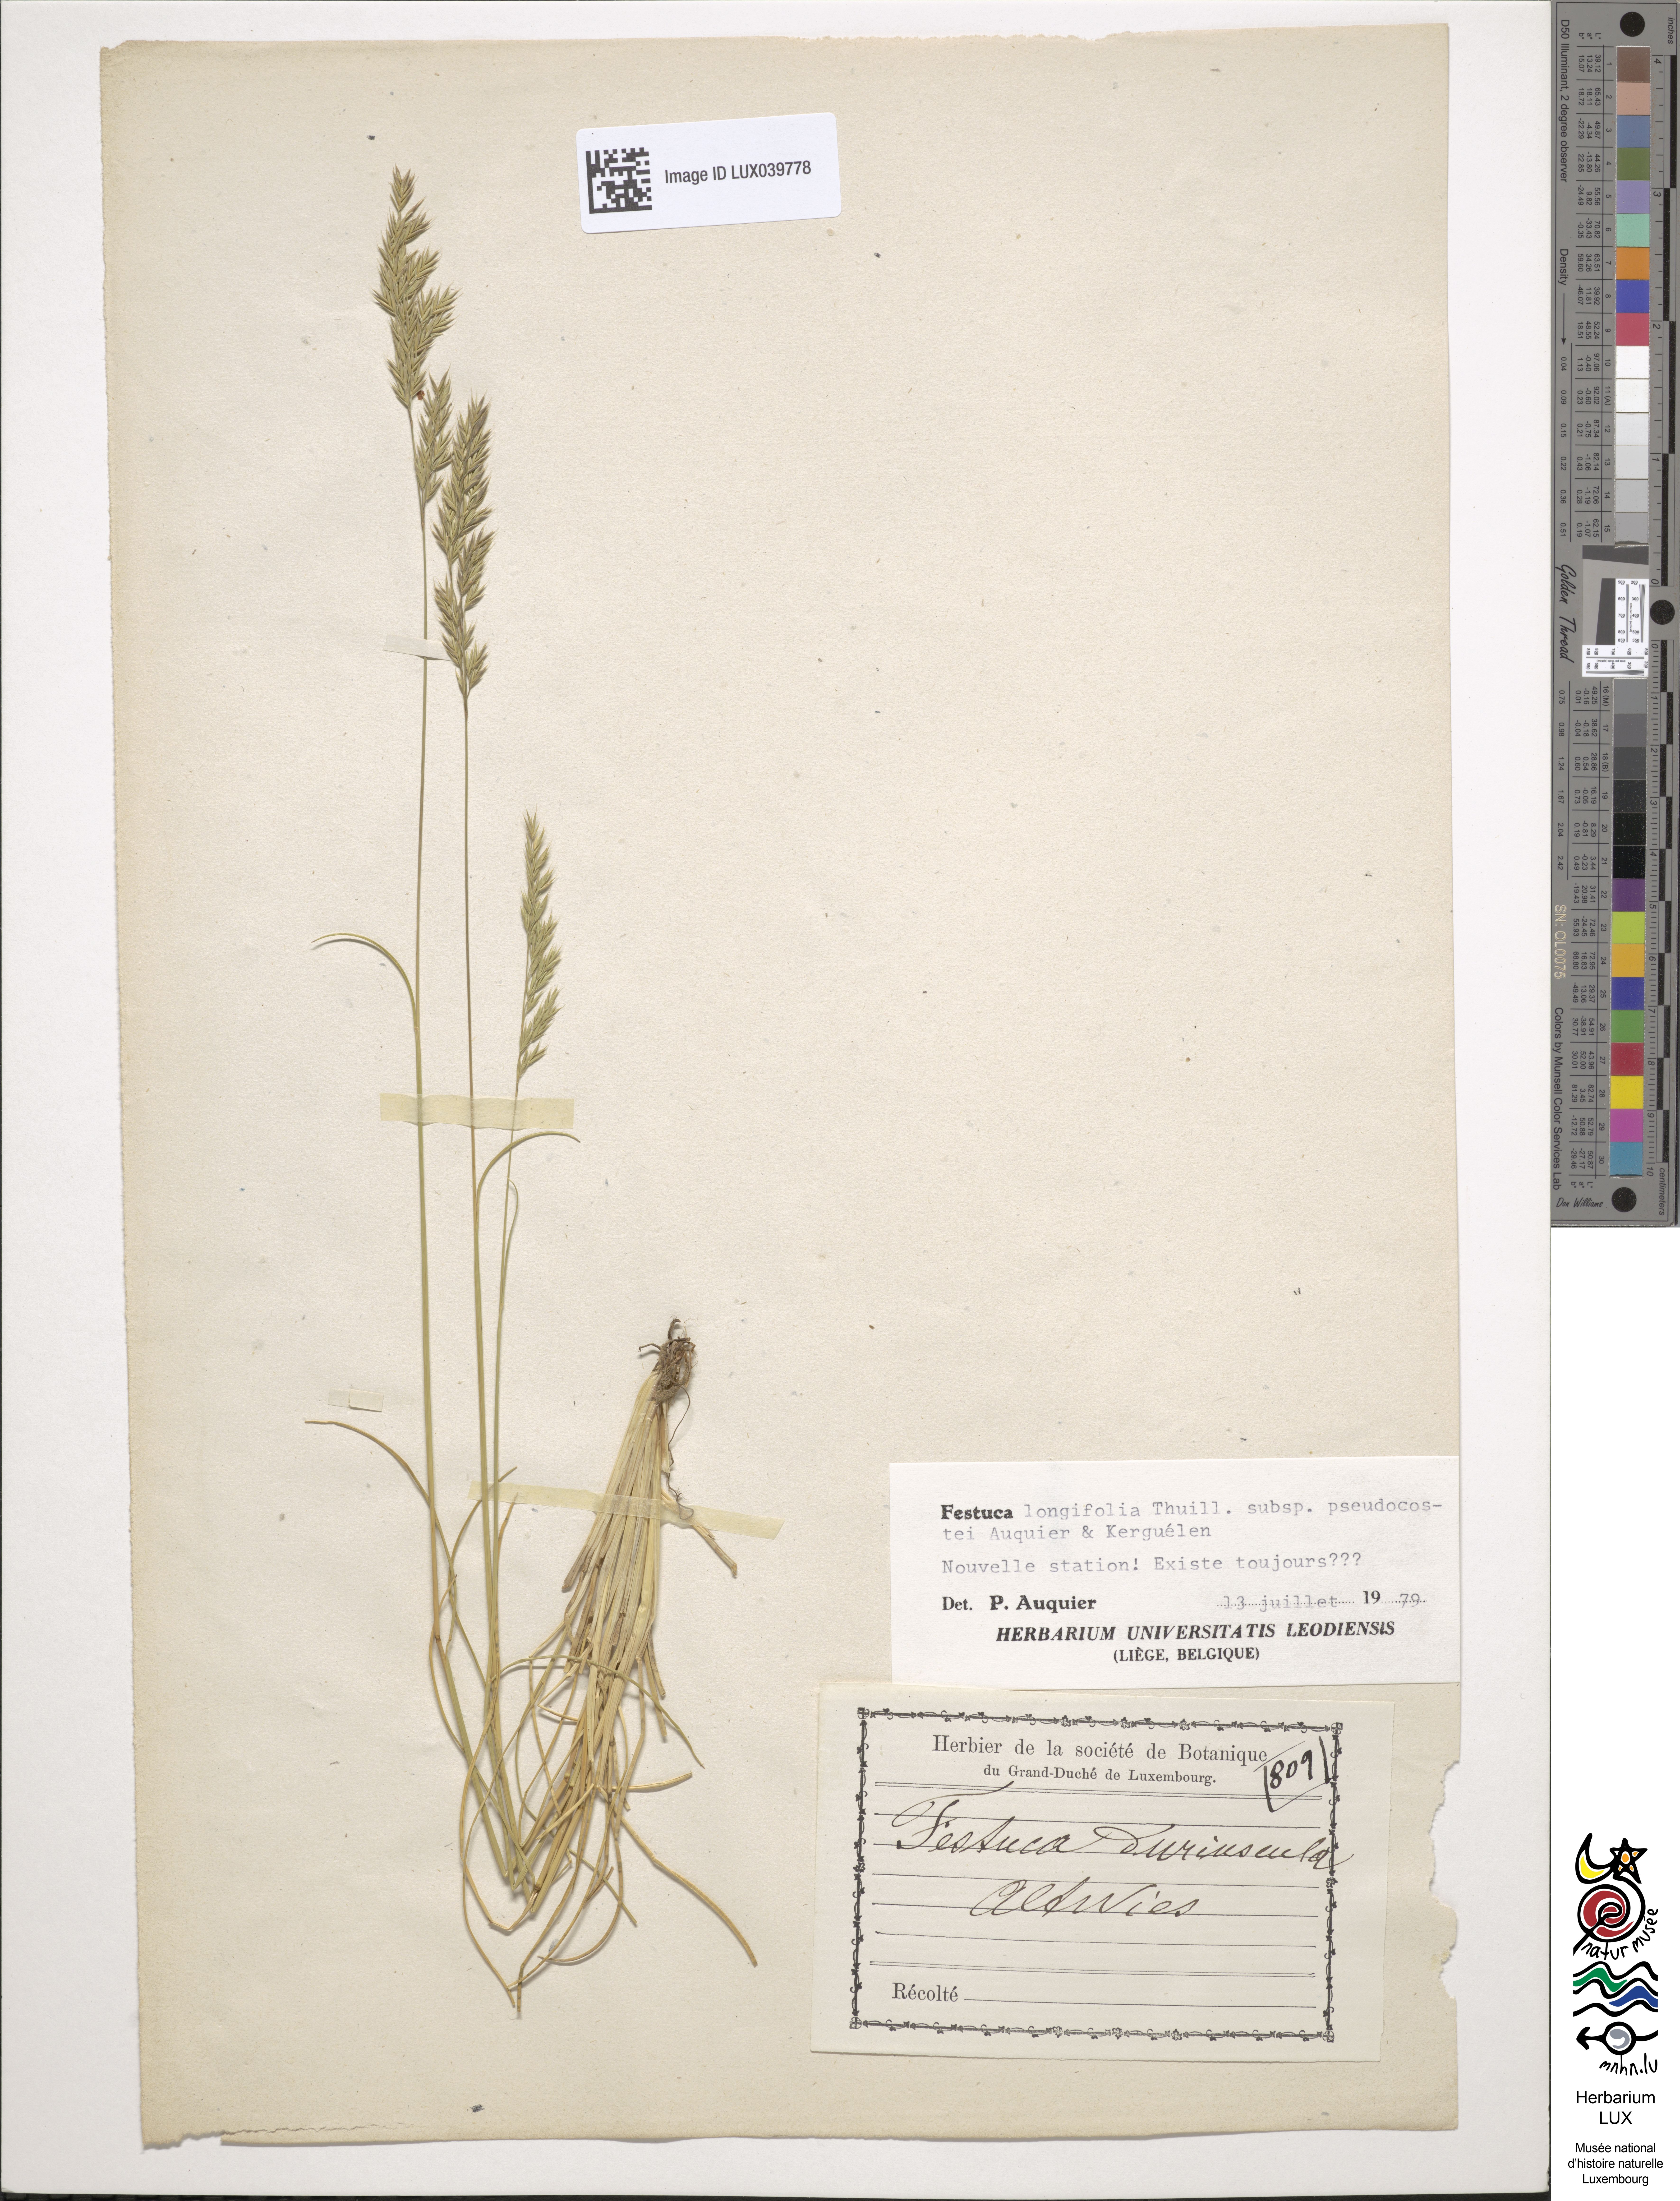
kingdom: Plantae
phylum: Tracheophyta
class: Liliopsida
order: Poales
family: Poaceae
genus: Festuca
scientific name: Festuca rubra
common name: Red fescue
